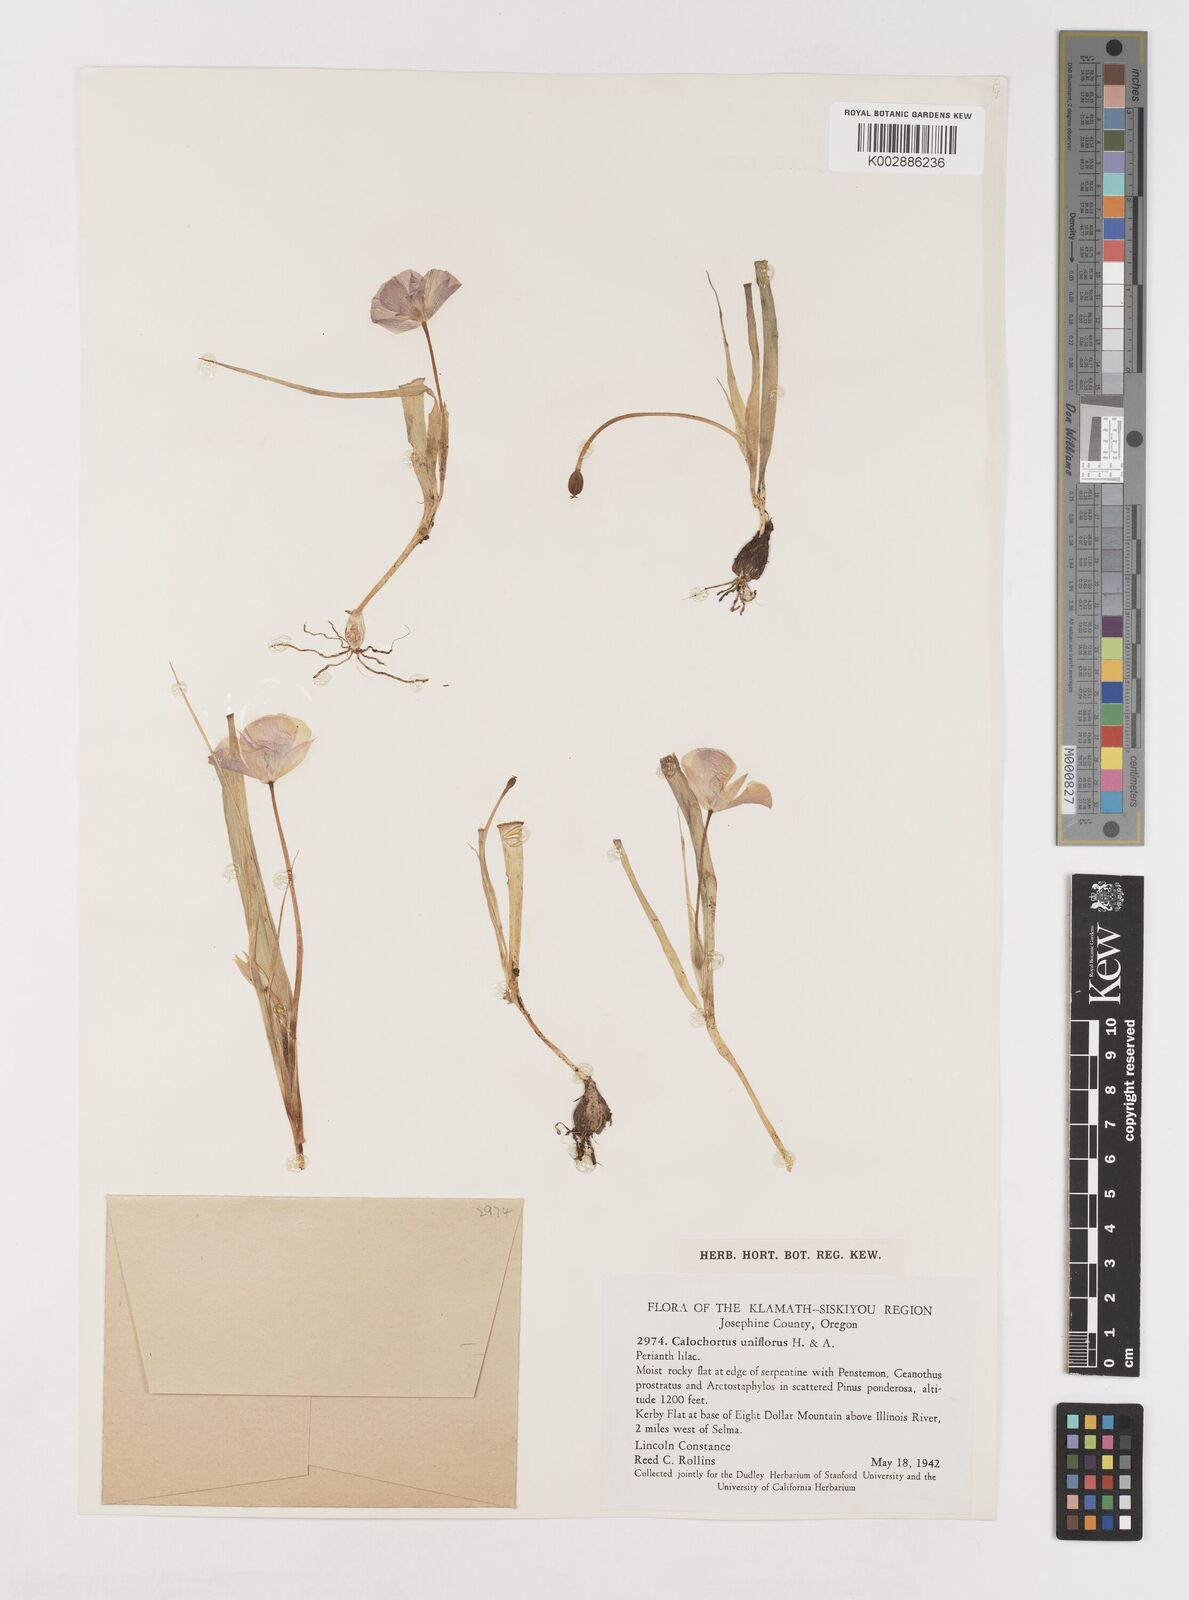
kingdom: Plantae
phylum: Tracheophyta
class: Liliopsida
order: Liliales
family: Liliaceae
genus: Calochortus
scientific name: Calochortus uniflorus
